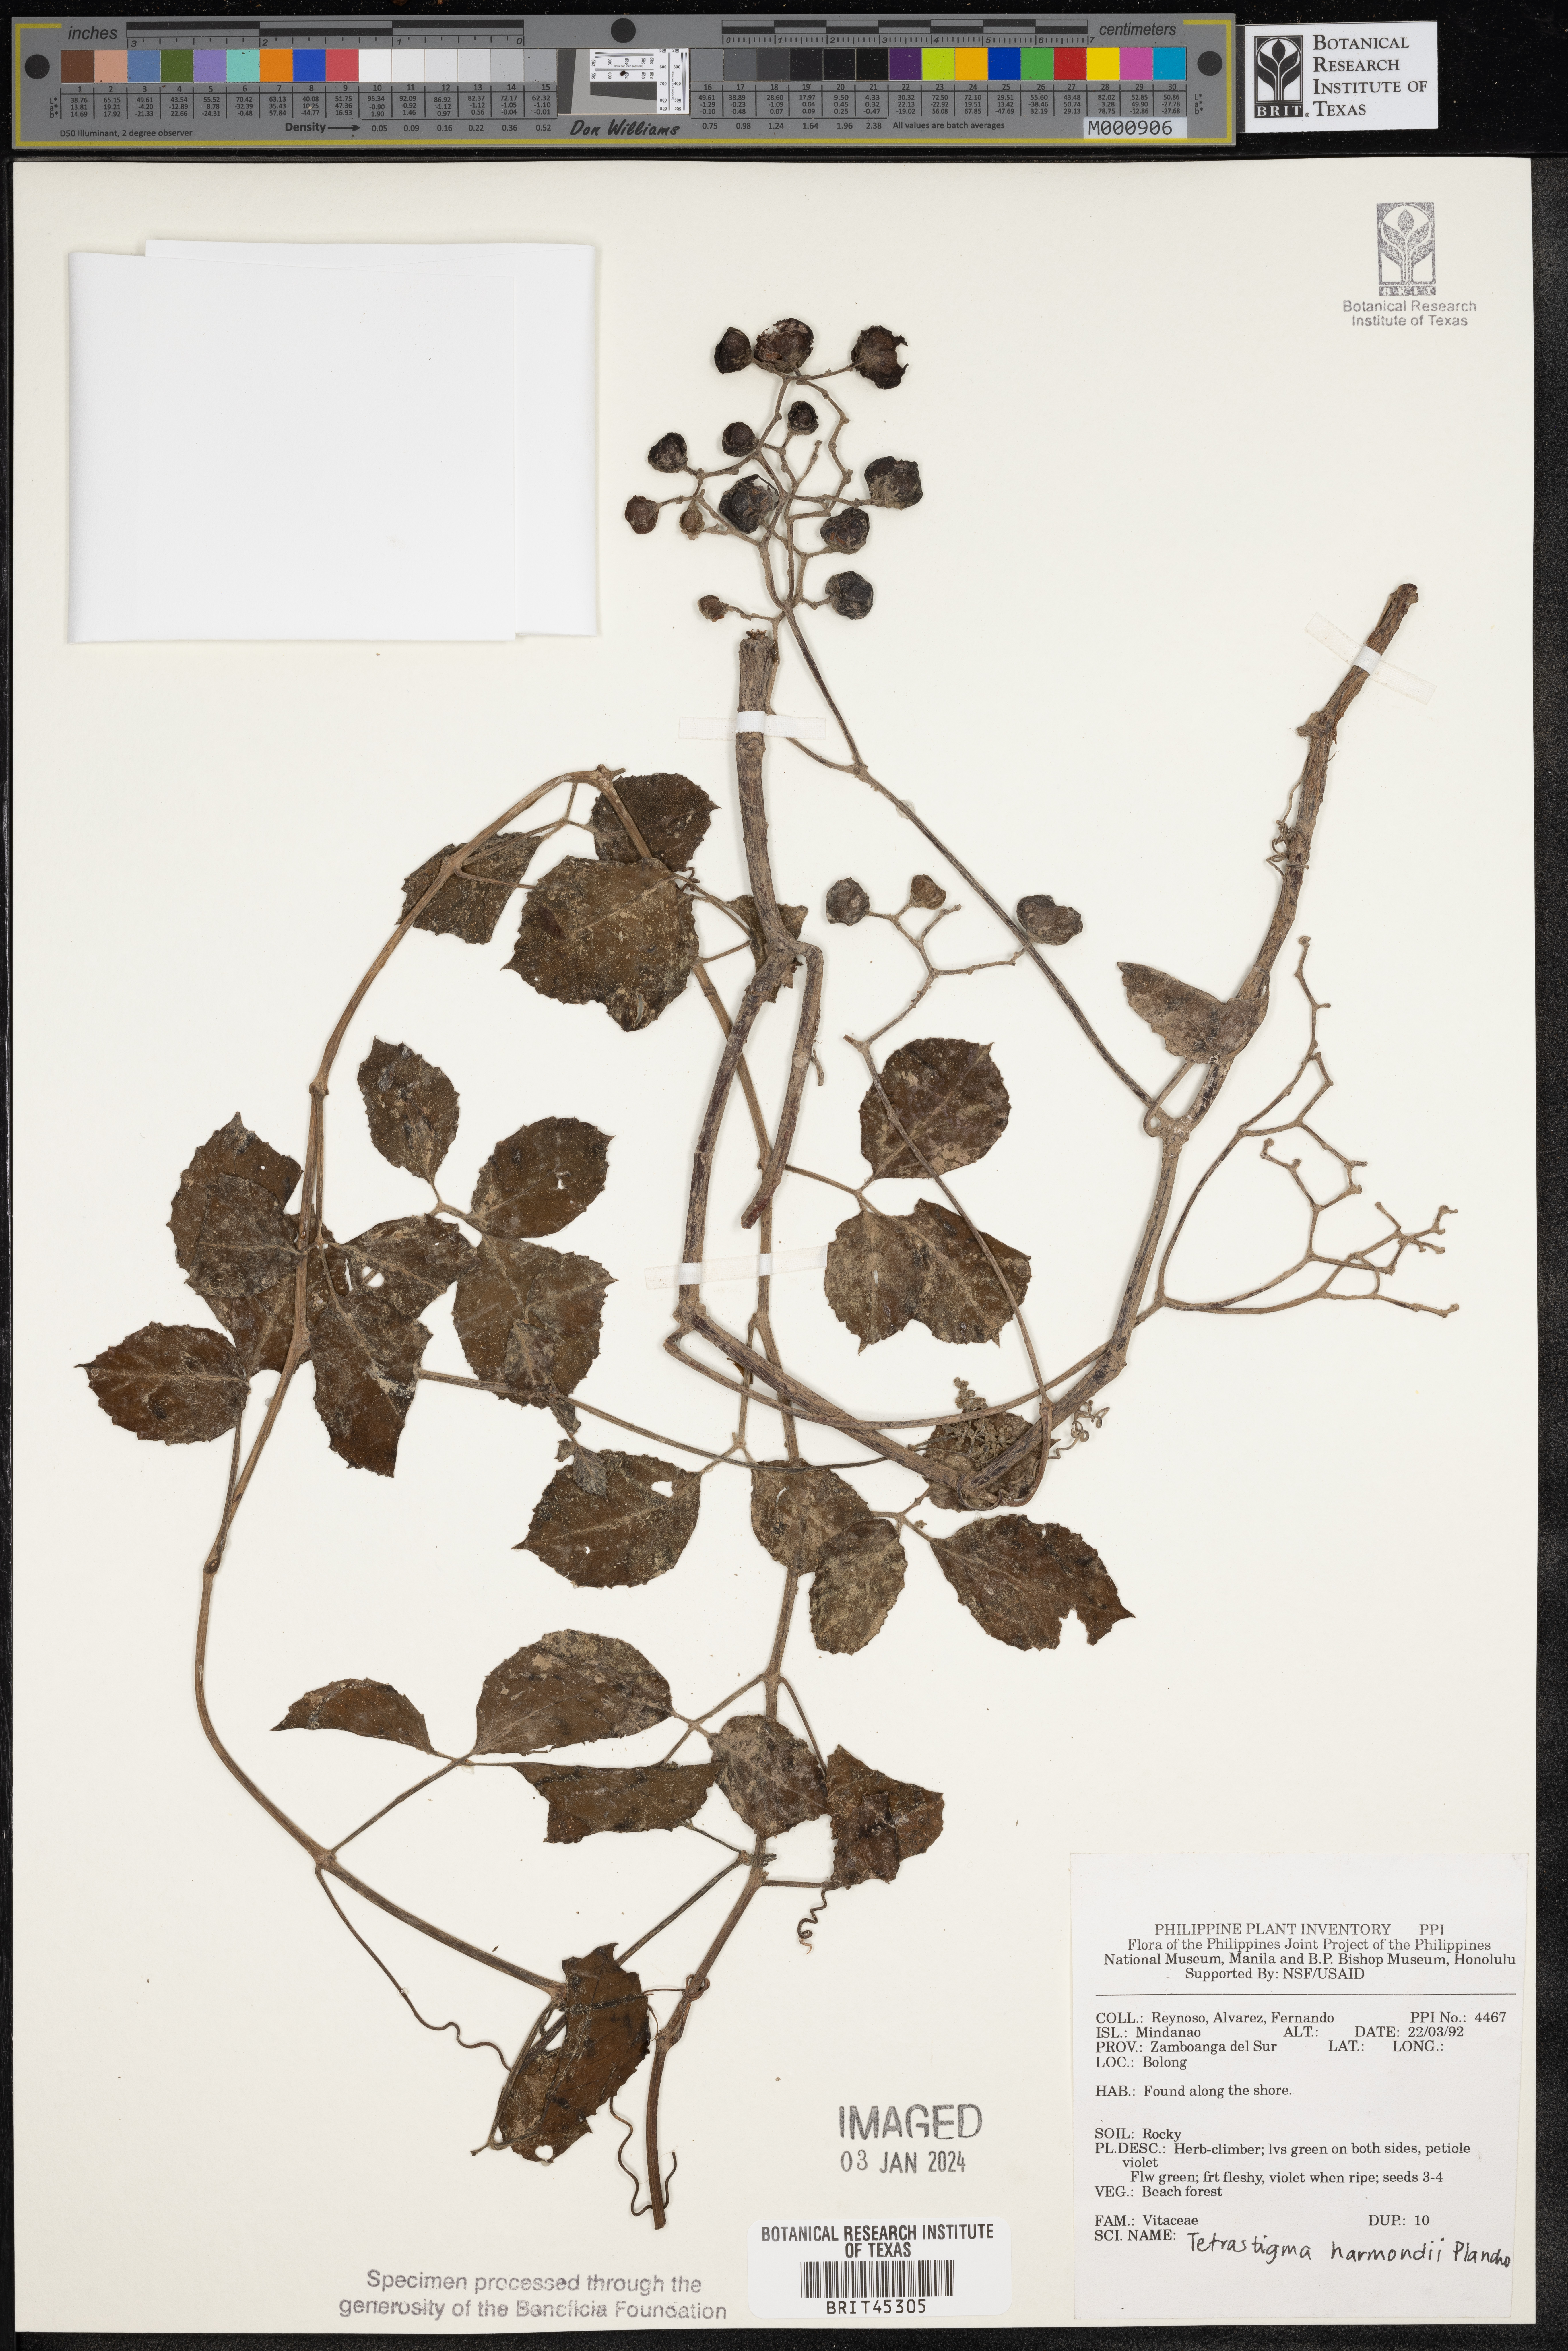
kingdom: Plantae
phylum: Tracheophyta
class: Magnoliopsida
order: Vitales
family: Vitaceae
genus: Tetrastigma
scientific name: Tetrastigma harmandii
